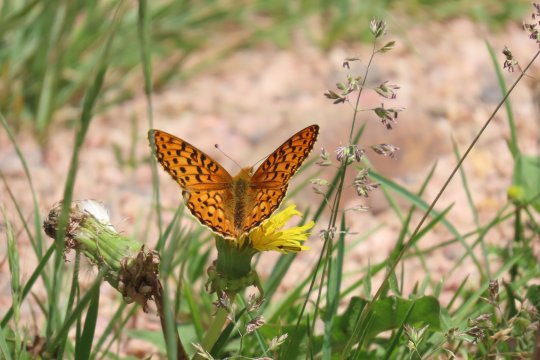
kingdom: Animalia
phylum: Arthropoda
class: Insecta
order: Lepidoptera
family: Nymphalidae
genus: Speyeria
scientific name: Speyeria mormonia
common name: Mormon Fritillary
